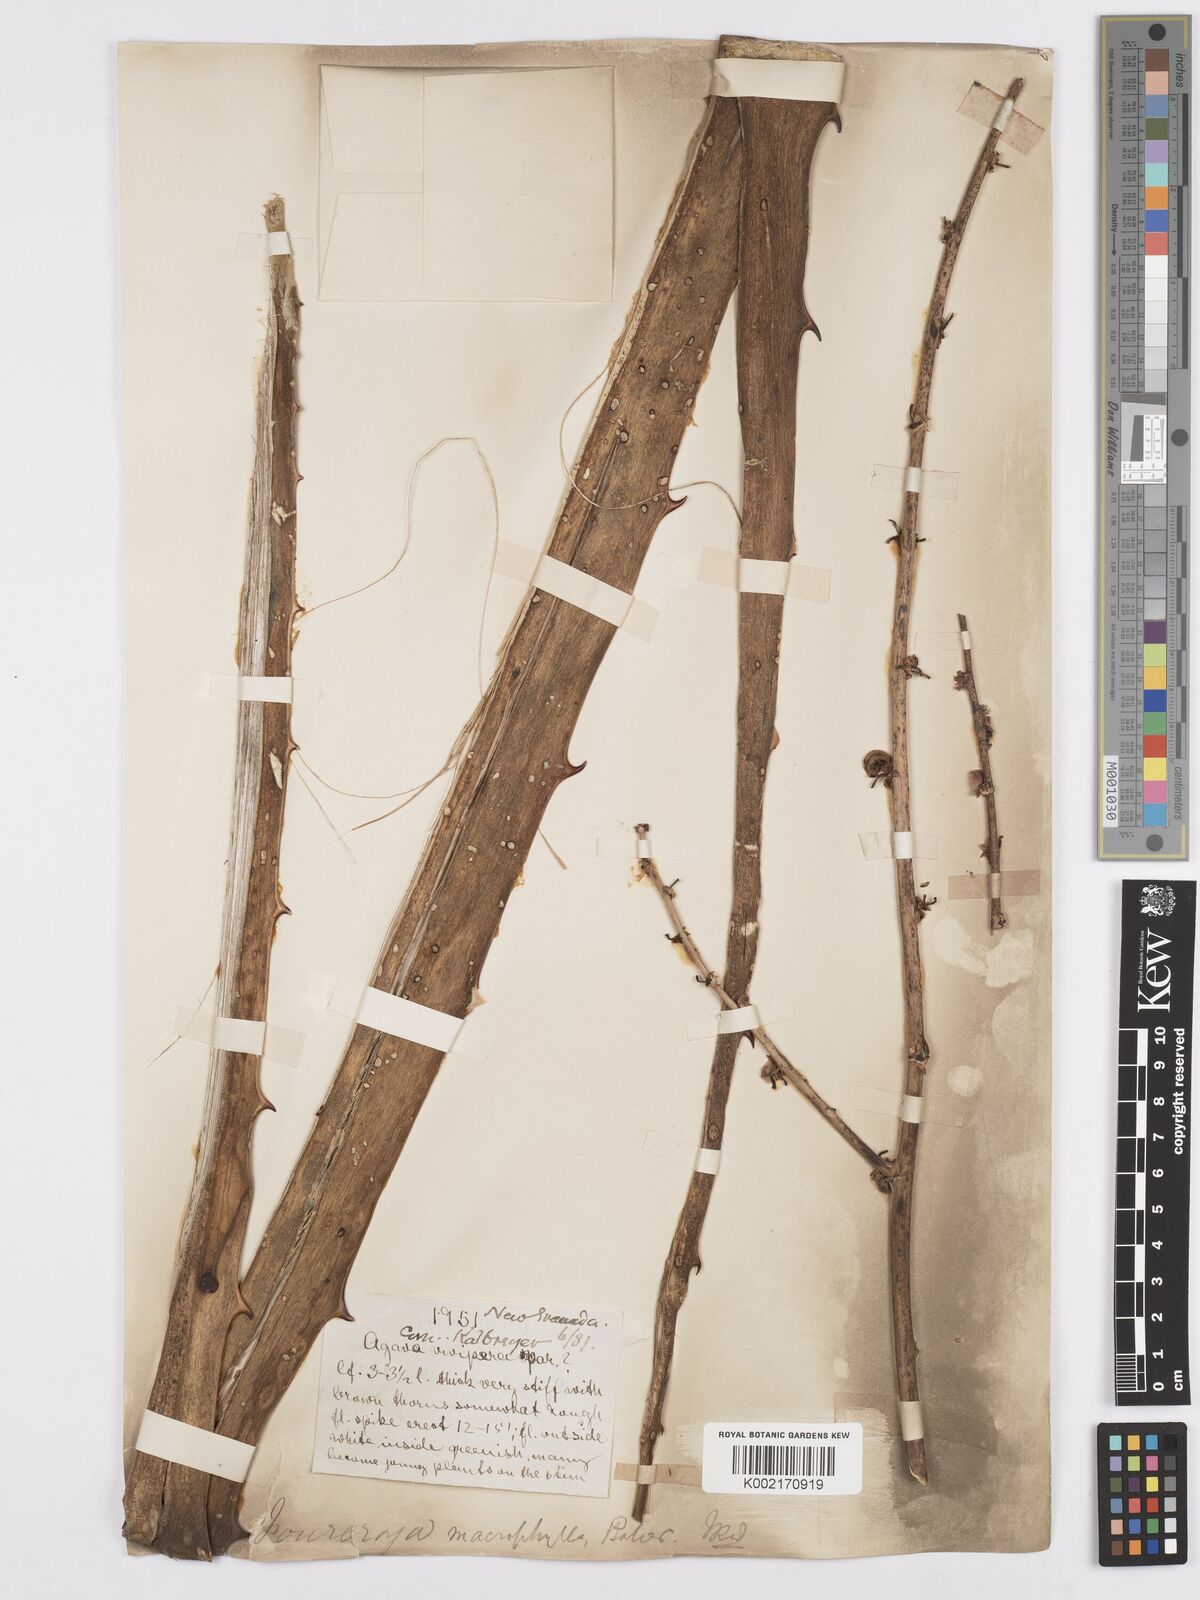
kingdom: Plantae
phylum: Tracheophyta
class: Liliopsida
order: Asparagales
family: Asparagaceae
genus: Furcraea
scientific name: Furcraea hexapetala
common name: Cuban-hemp
